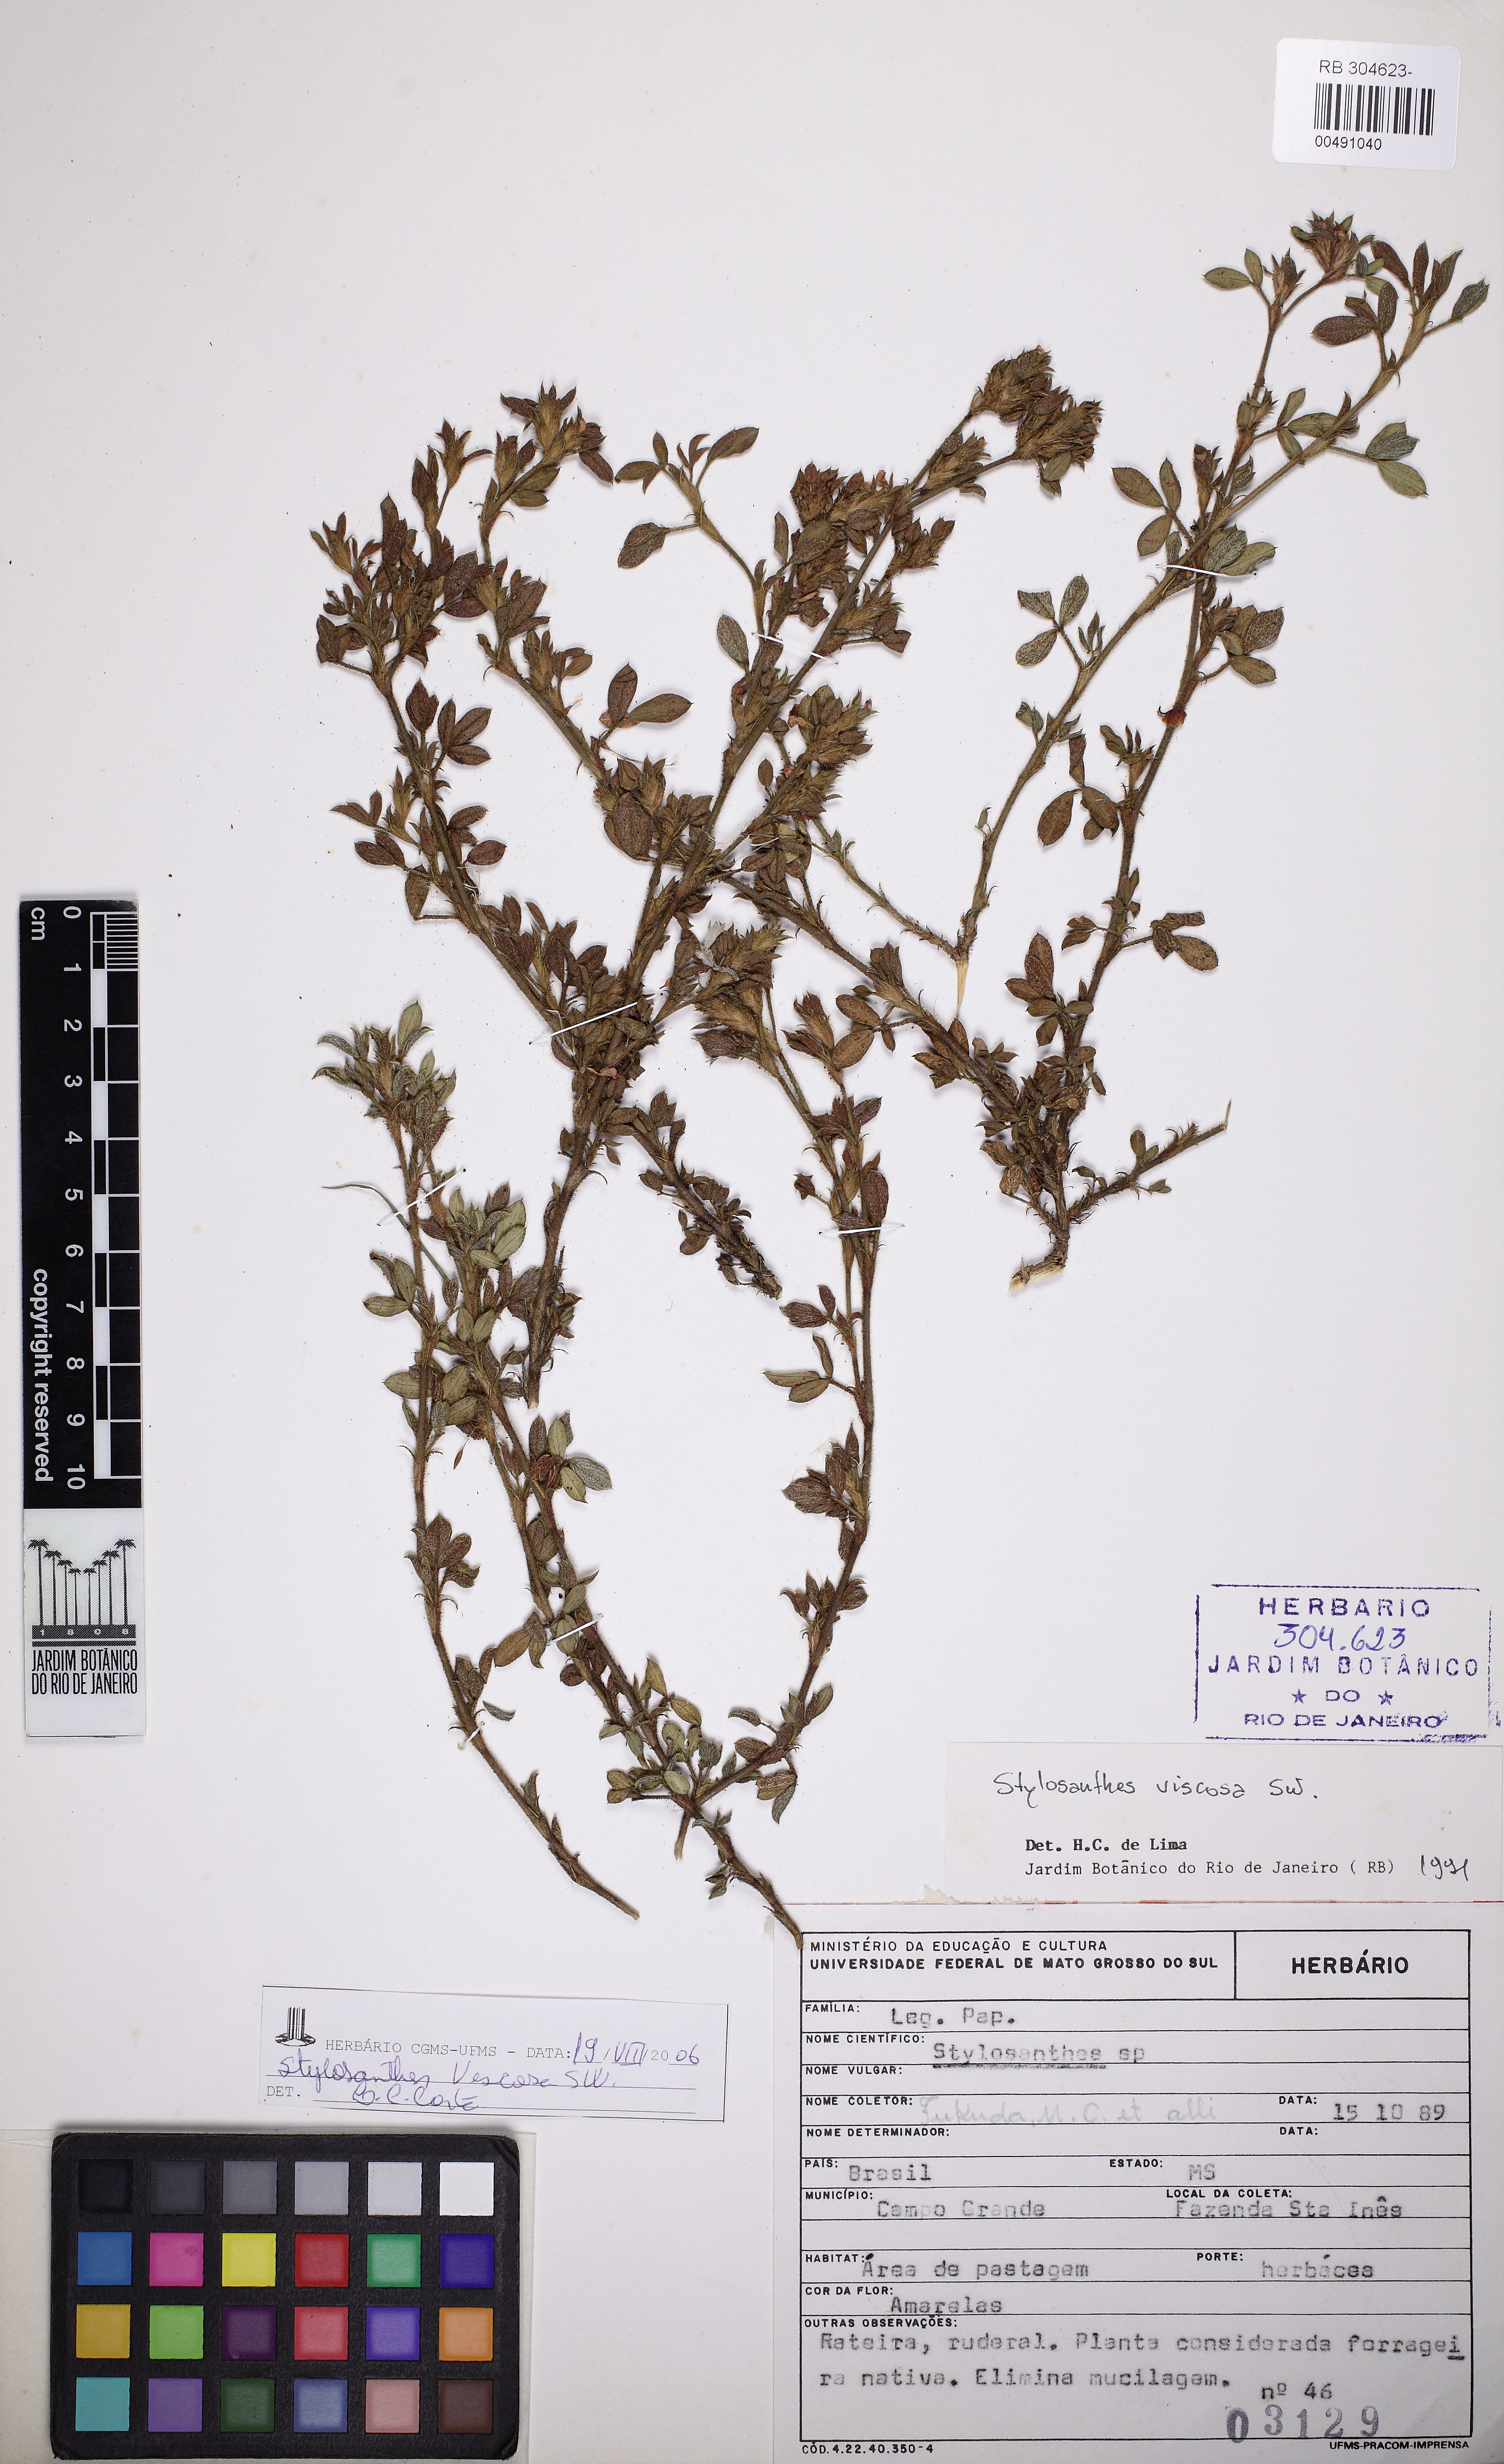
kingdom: Plantae
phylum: Tracheophyta
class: Magnoliopsida
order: Fabales
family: Fabaceae
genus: Stylosanthes
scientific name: Stylosanthes viscosa
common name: Viscid pencil-flower
